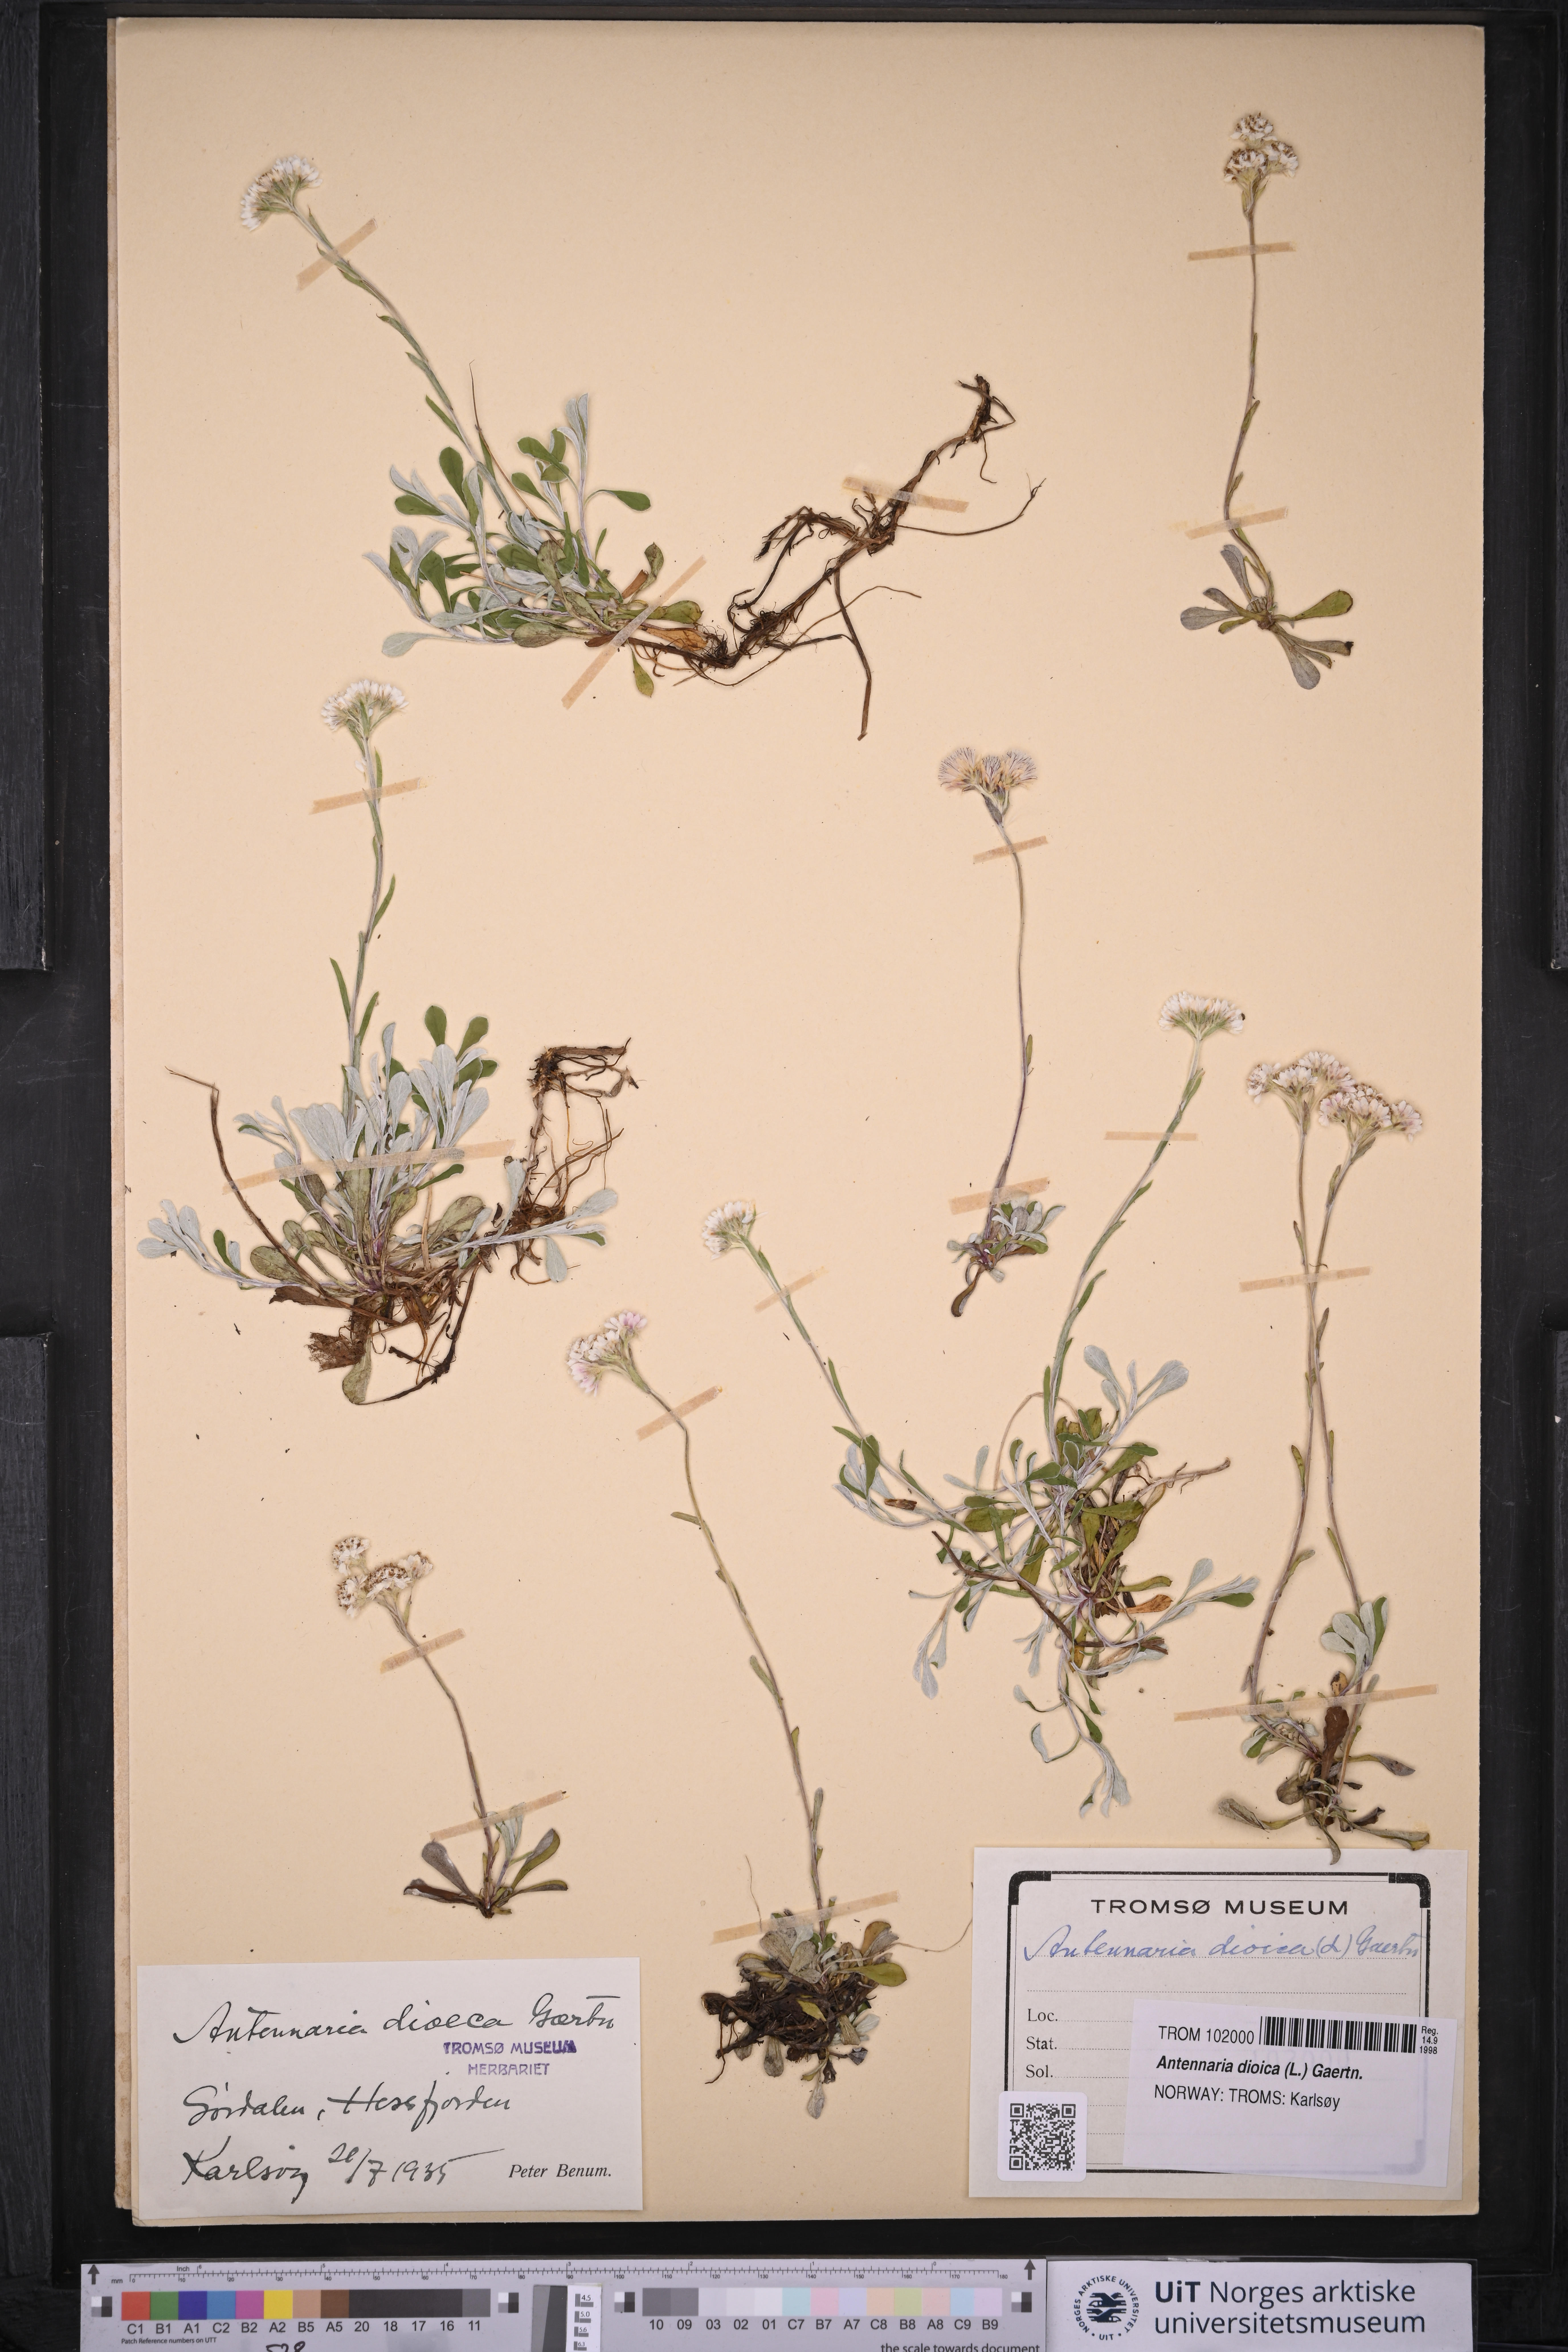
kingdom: Plantae
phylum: Tracheophyta
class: Magnoliopsida
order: Asterales
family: Asteraceae
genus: Antennaria
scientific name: Antennaria dioica
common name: Mountain everlasting
